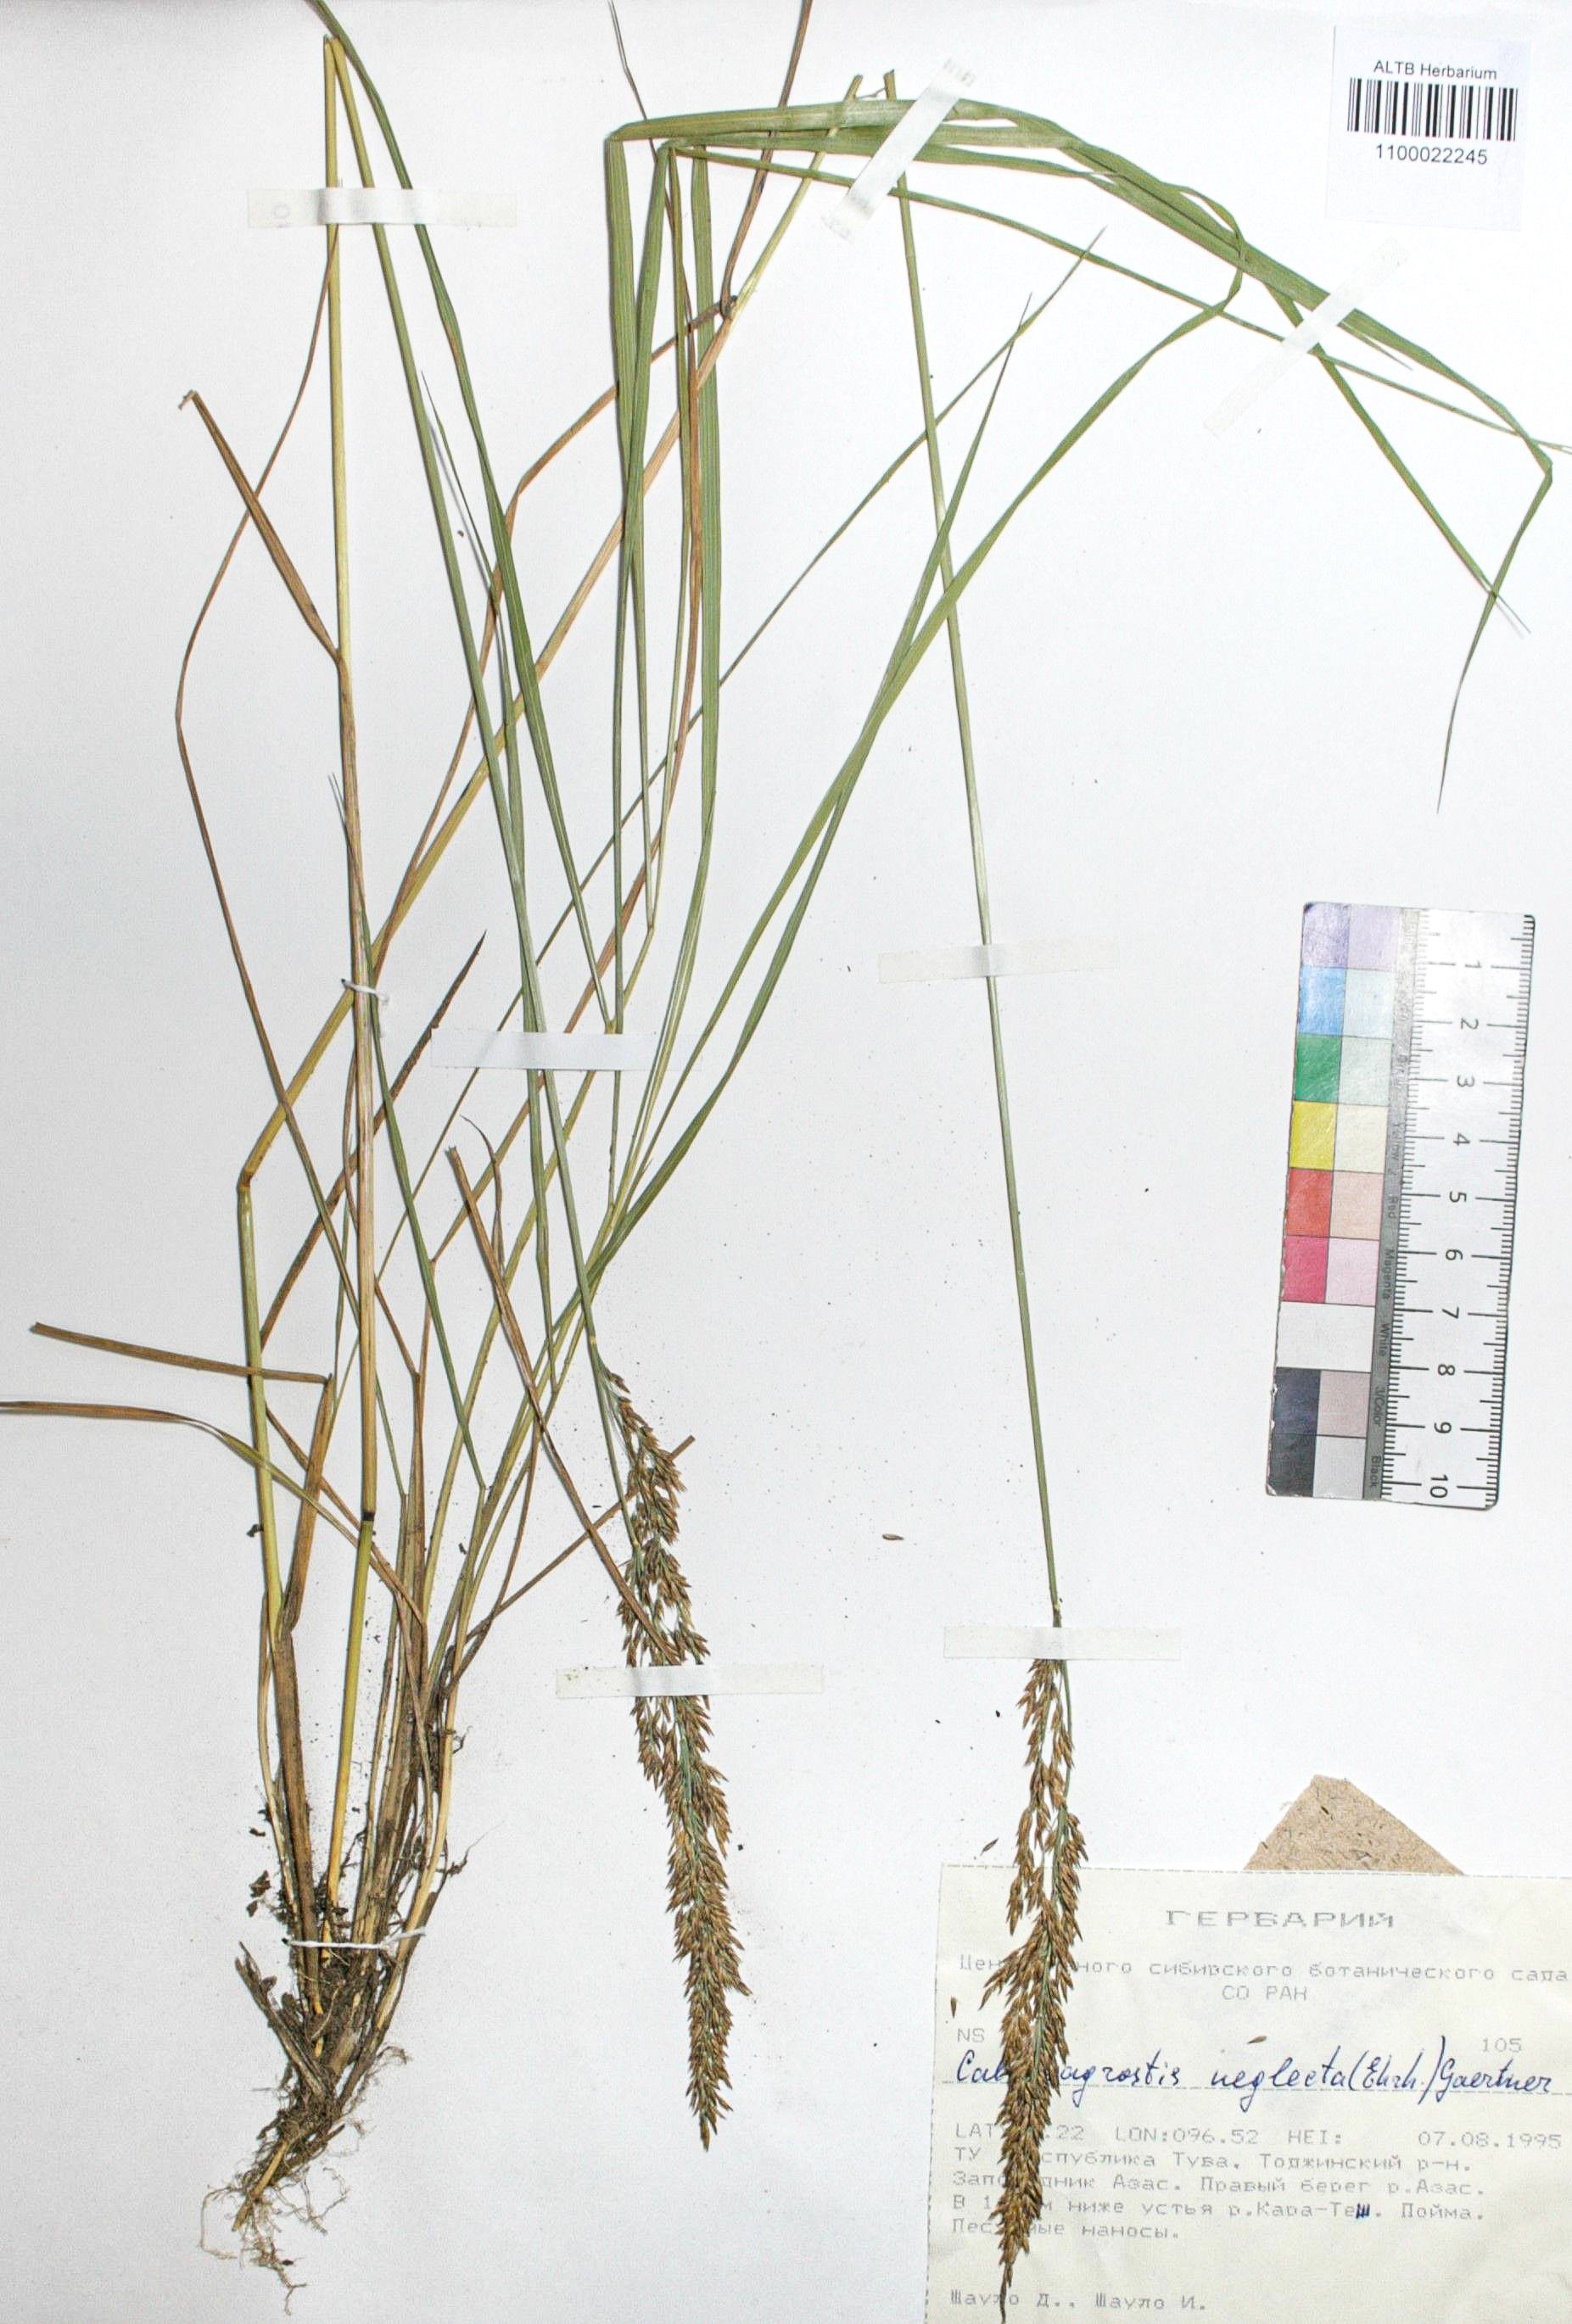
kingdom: Plantae
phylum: Tracheophyta
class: Liliopsida
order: Poales
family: Poaceae
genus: Achnatherum
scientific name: Achnatherum calamagrostis
